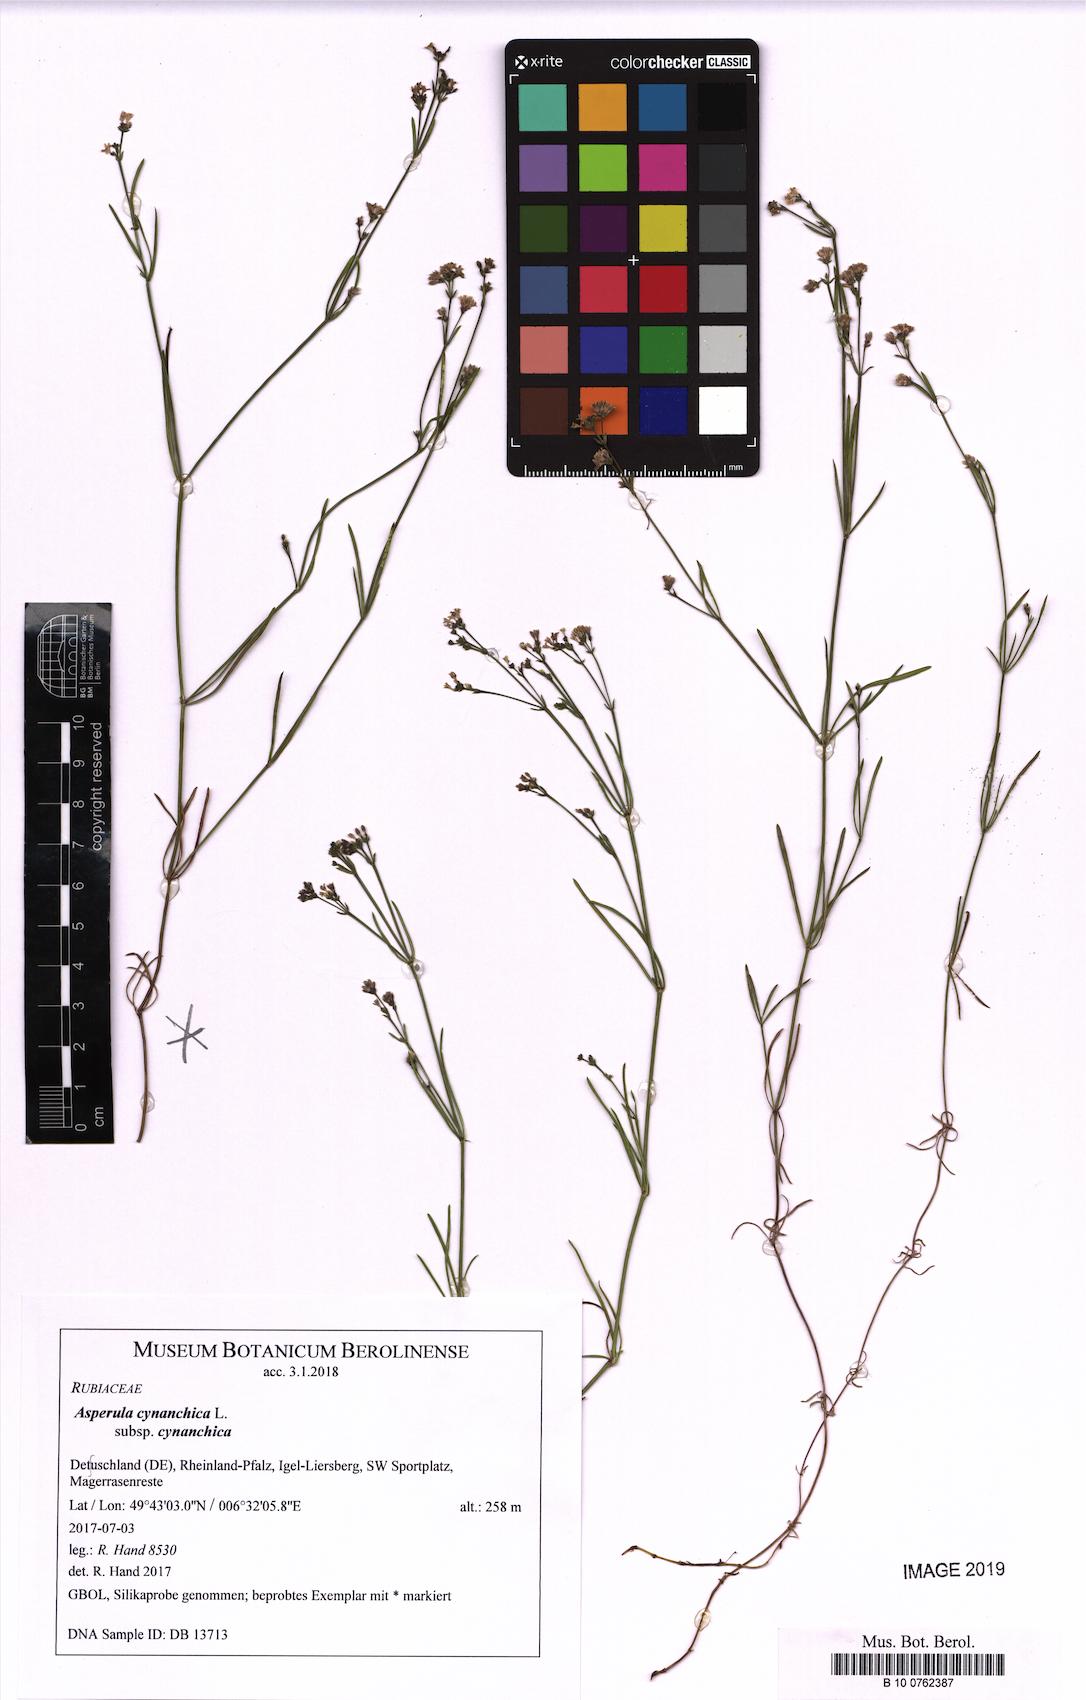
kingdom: Plantae
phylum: Tracheophyta
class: Magnoliopsida
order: Gentianales
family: Rubiaceae
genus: Cynanchica
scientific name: Cynanchica pyrenaica
